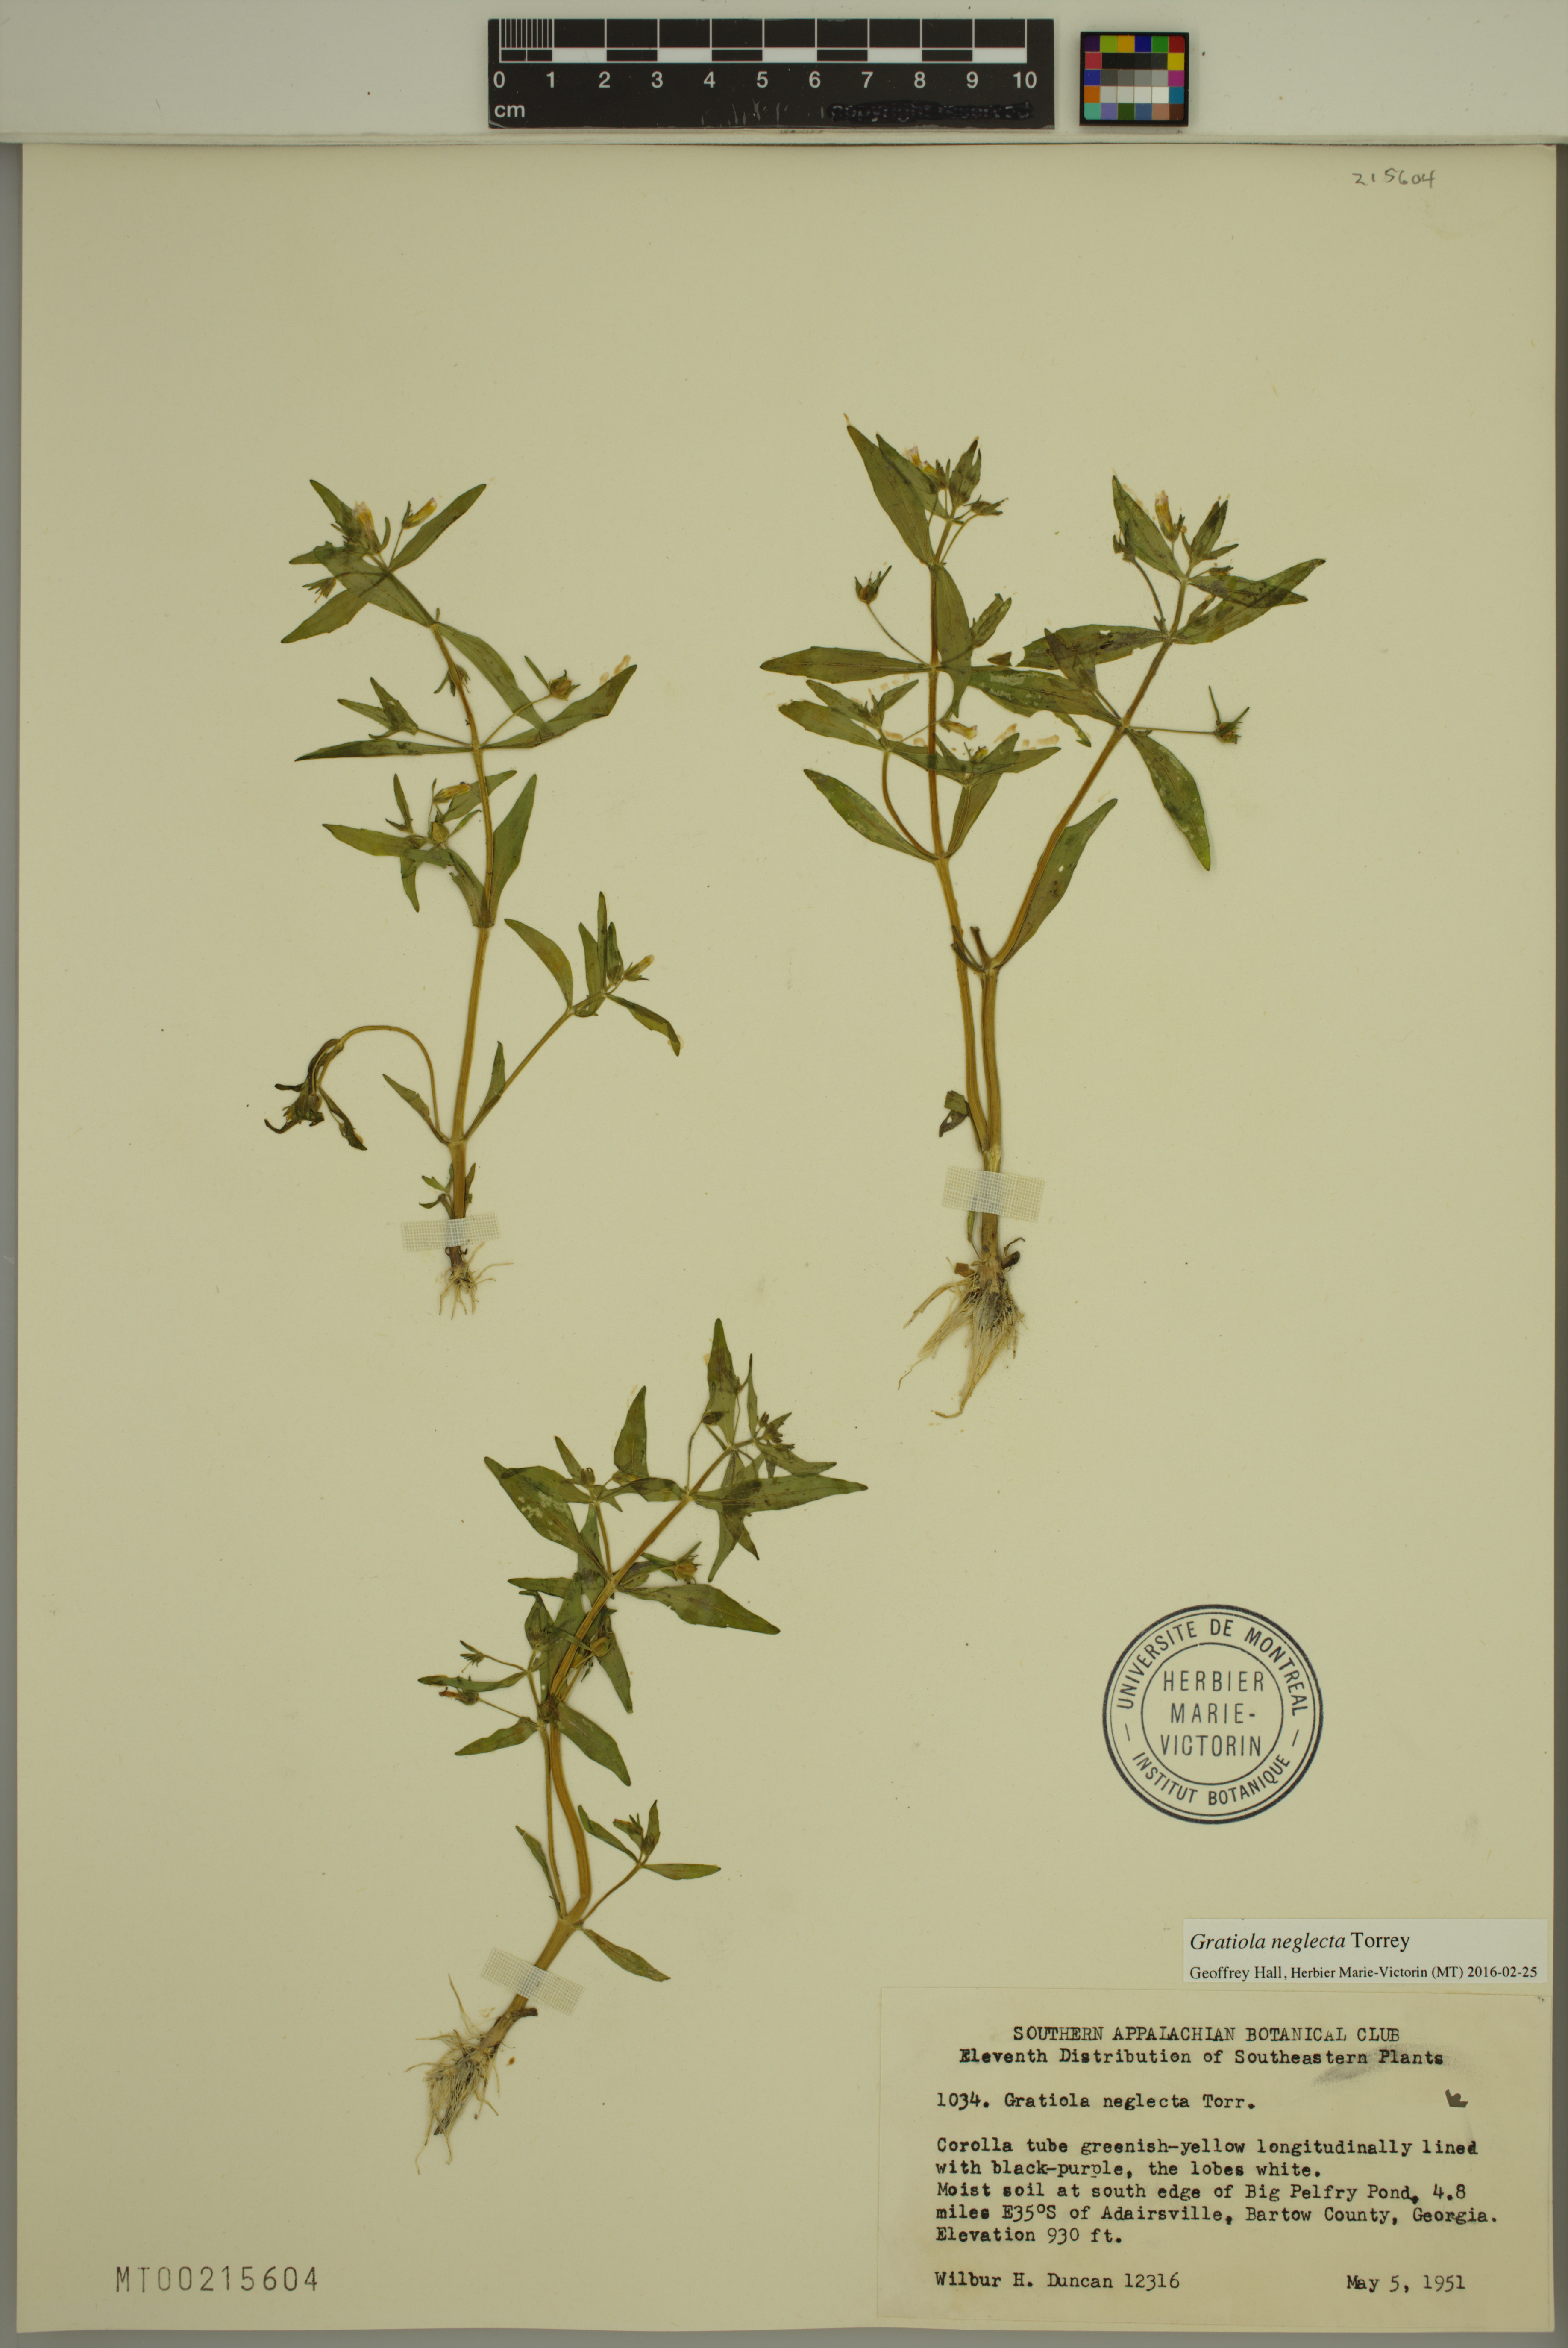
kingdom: Plantae
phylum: Tracheophyta
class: Magnoliopsida
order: Lamiales
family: Plantaginaceae
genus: Gratiola
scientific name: Gratiola neglecta
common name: American hedge-hyssop
